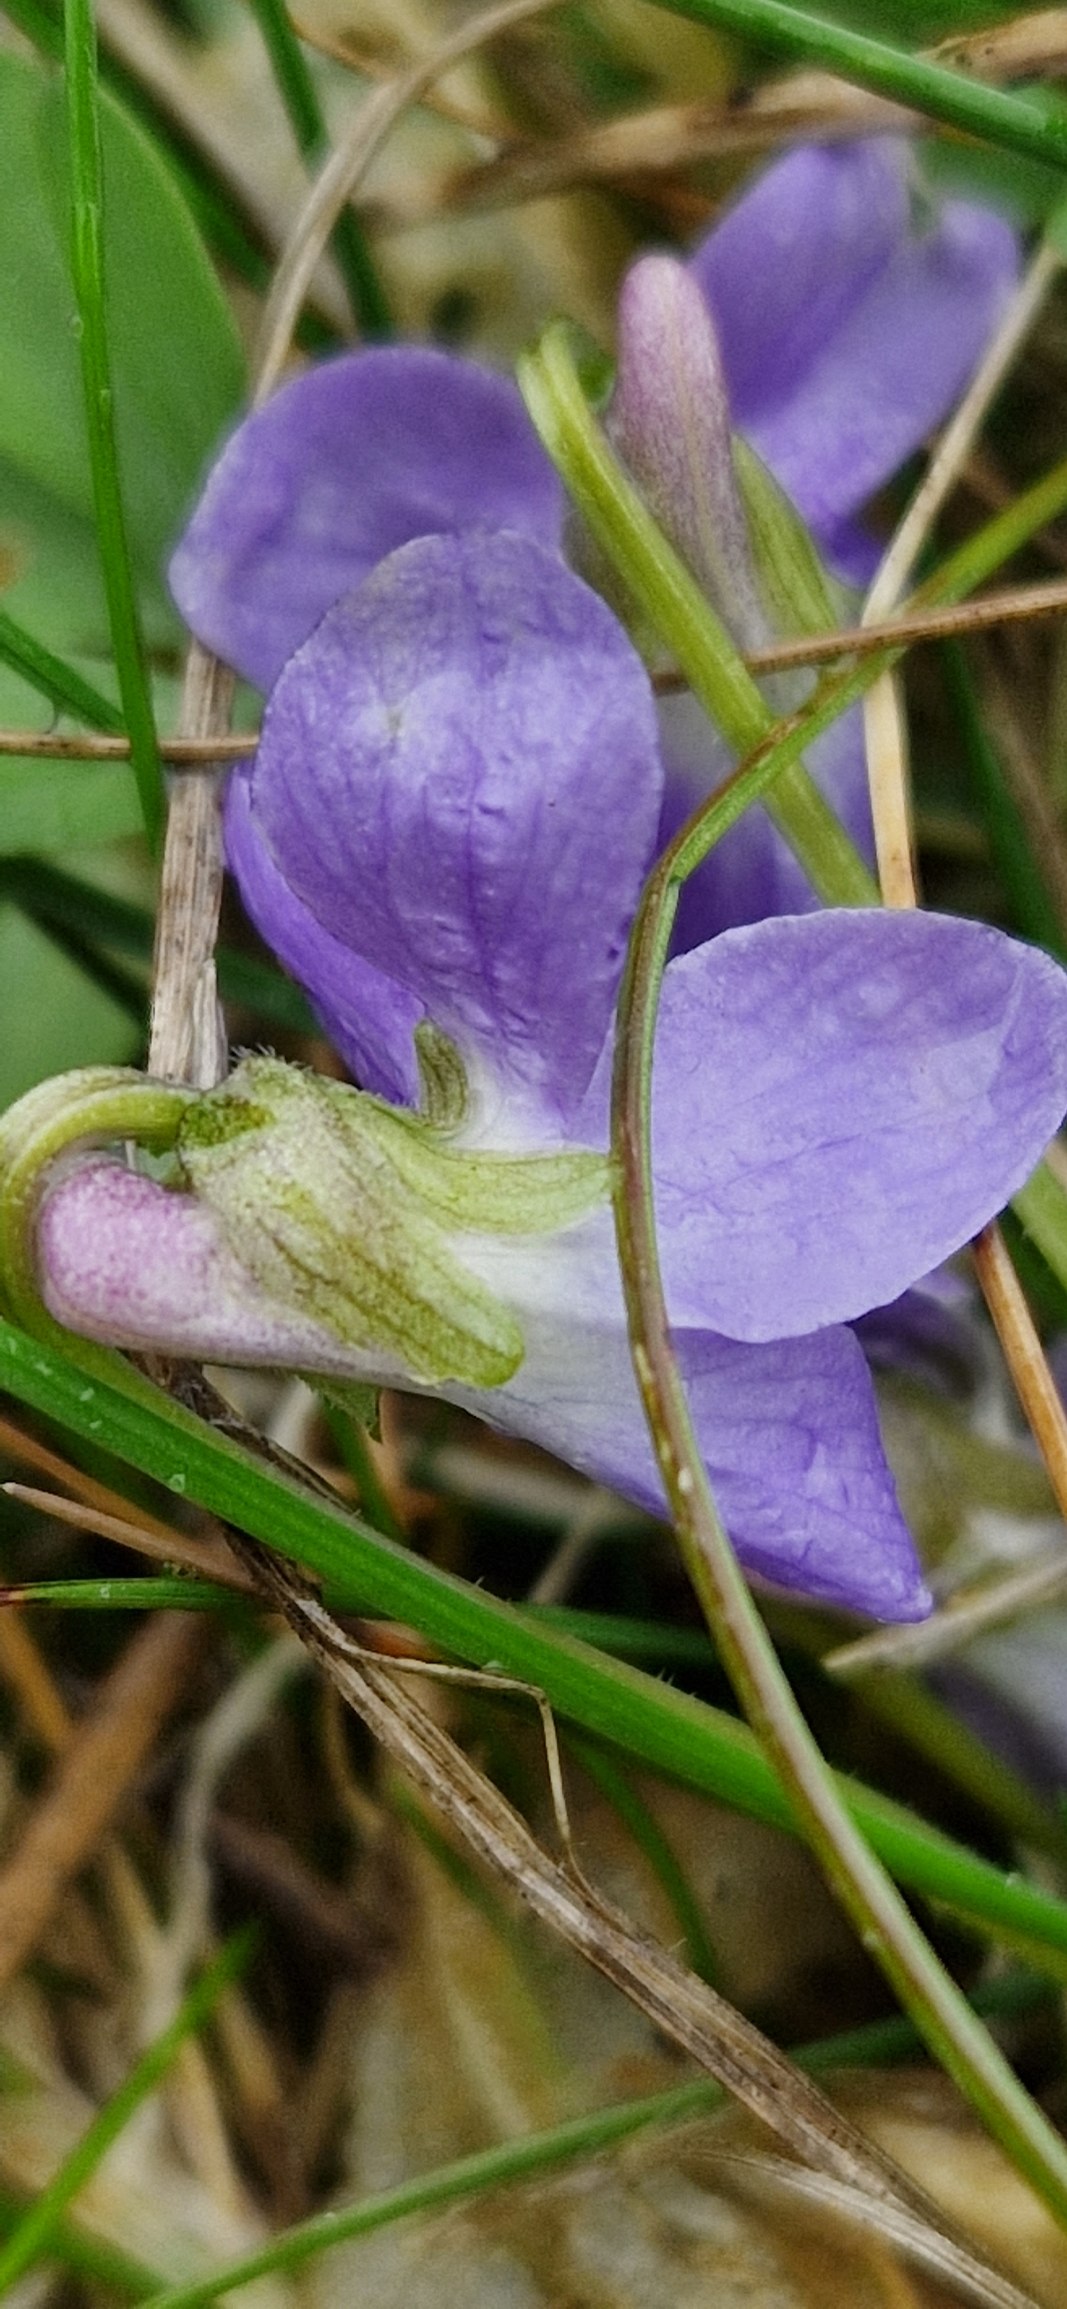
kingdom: Plantae
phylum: Tracheophyta
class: Magnoliopsida
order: Malpighiales
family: Violaceae
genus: Viola
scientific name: Viola hirta
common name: Håret viol
